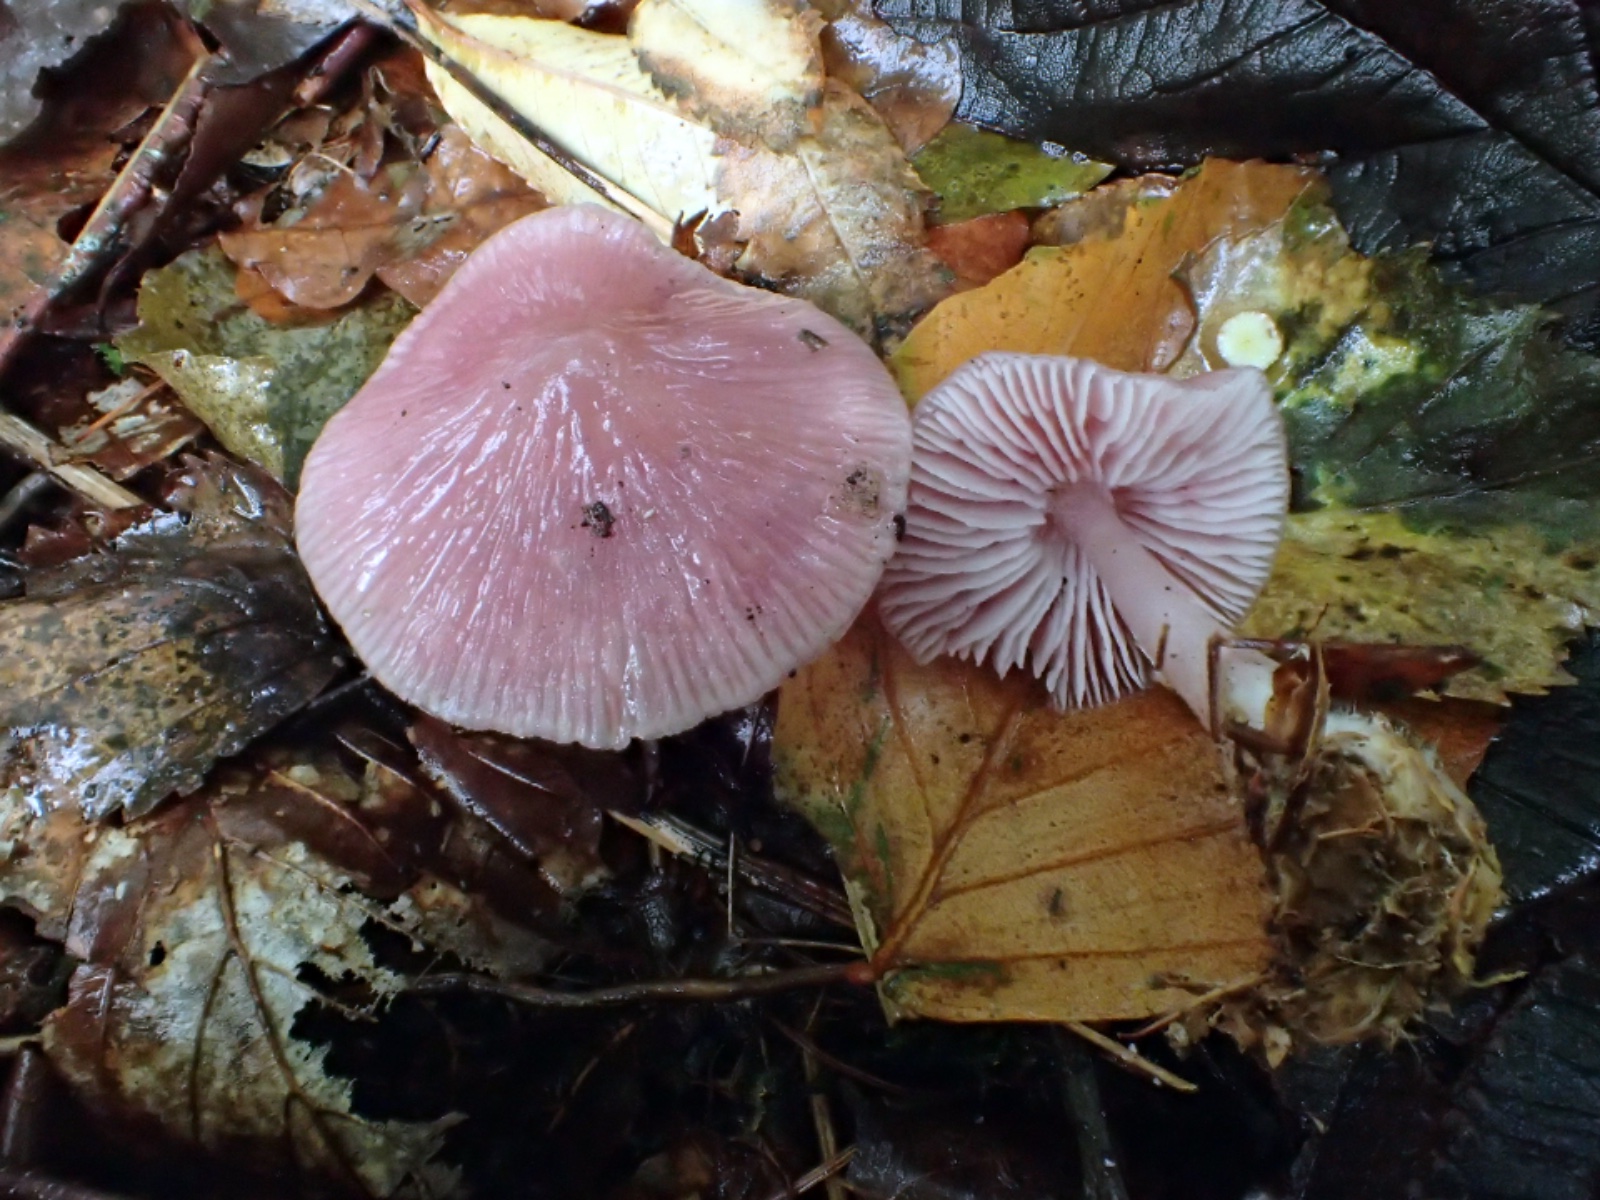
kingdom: Fungi
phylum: Basidiomycota
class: Agaricomycetes
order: Agaricales
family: Mycenaceae
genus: Mycena
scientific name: Mycena rosea
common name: rosa huesvamp
